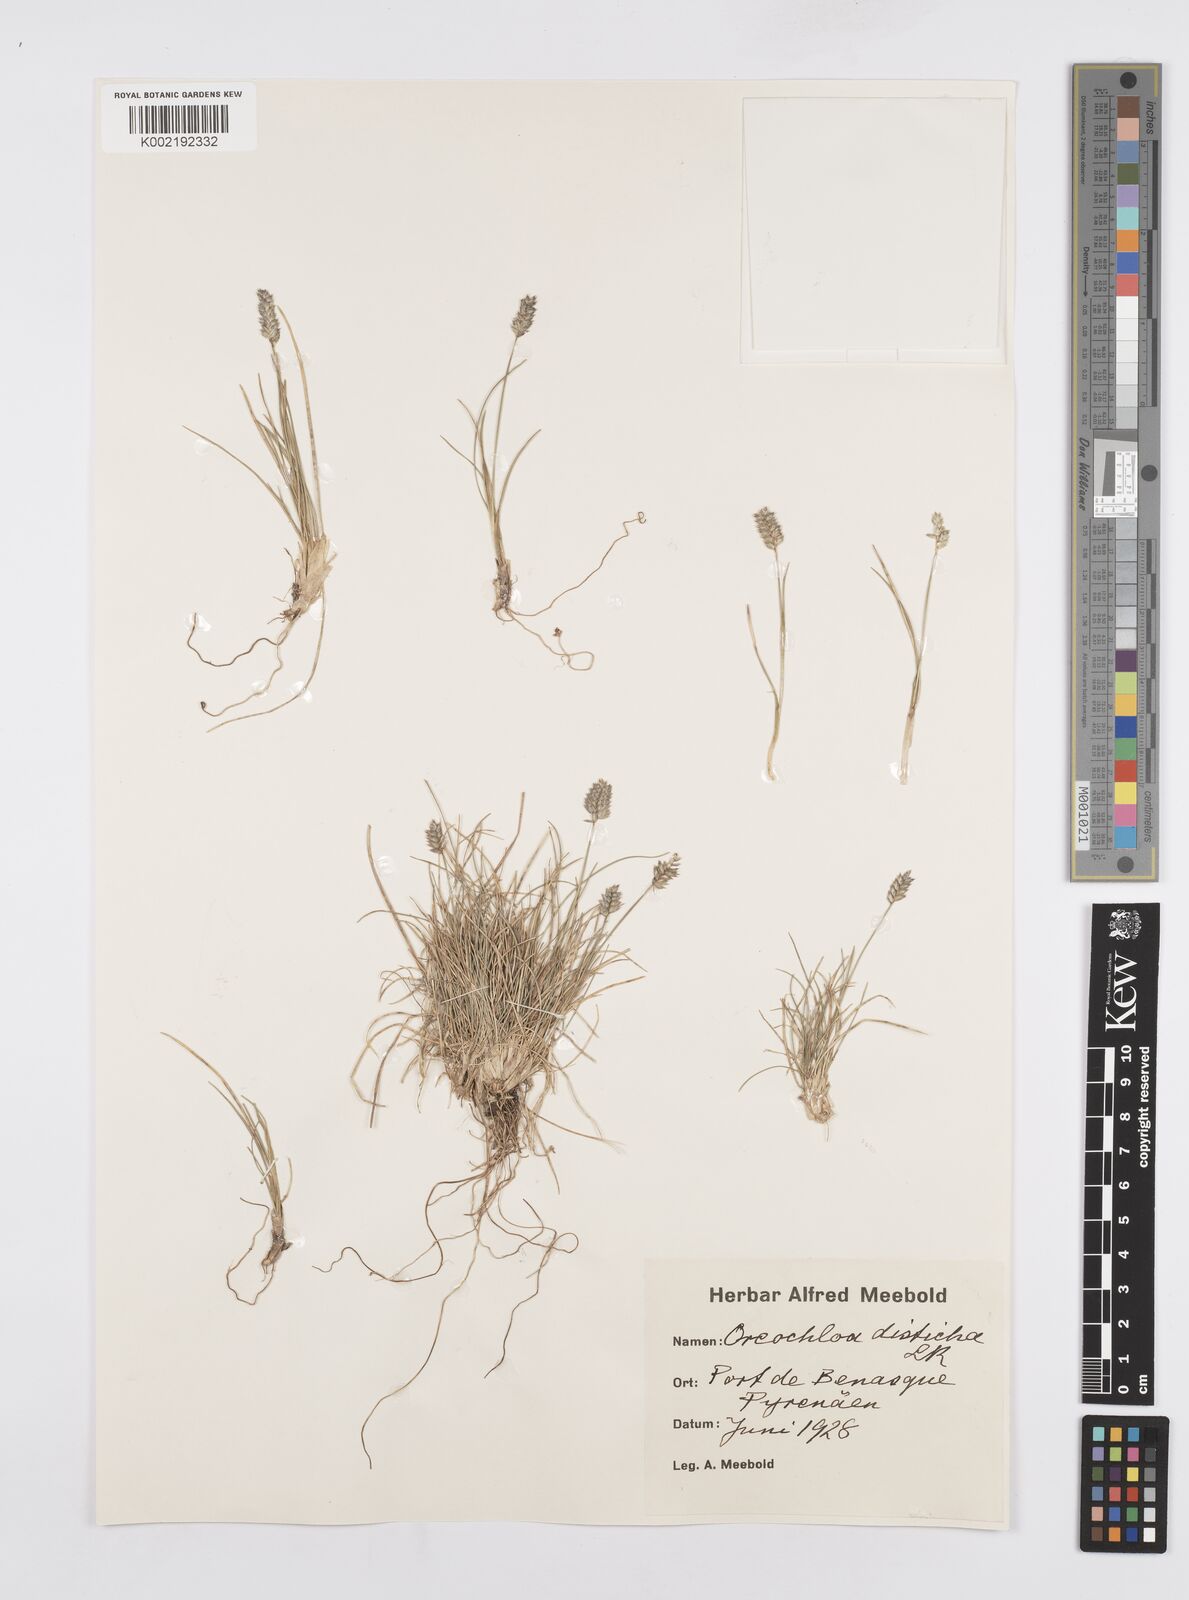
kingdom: Plantae
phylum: Tracheophyta
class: Liliopsida
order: Poales
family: Poaceae
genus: Oreochloa
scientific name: Oreochloa disticha
